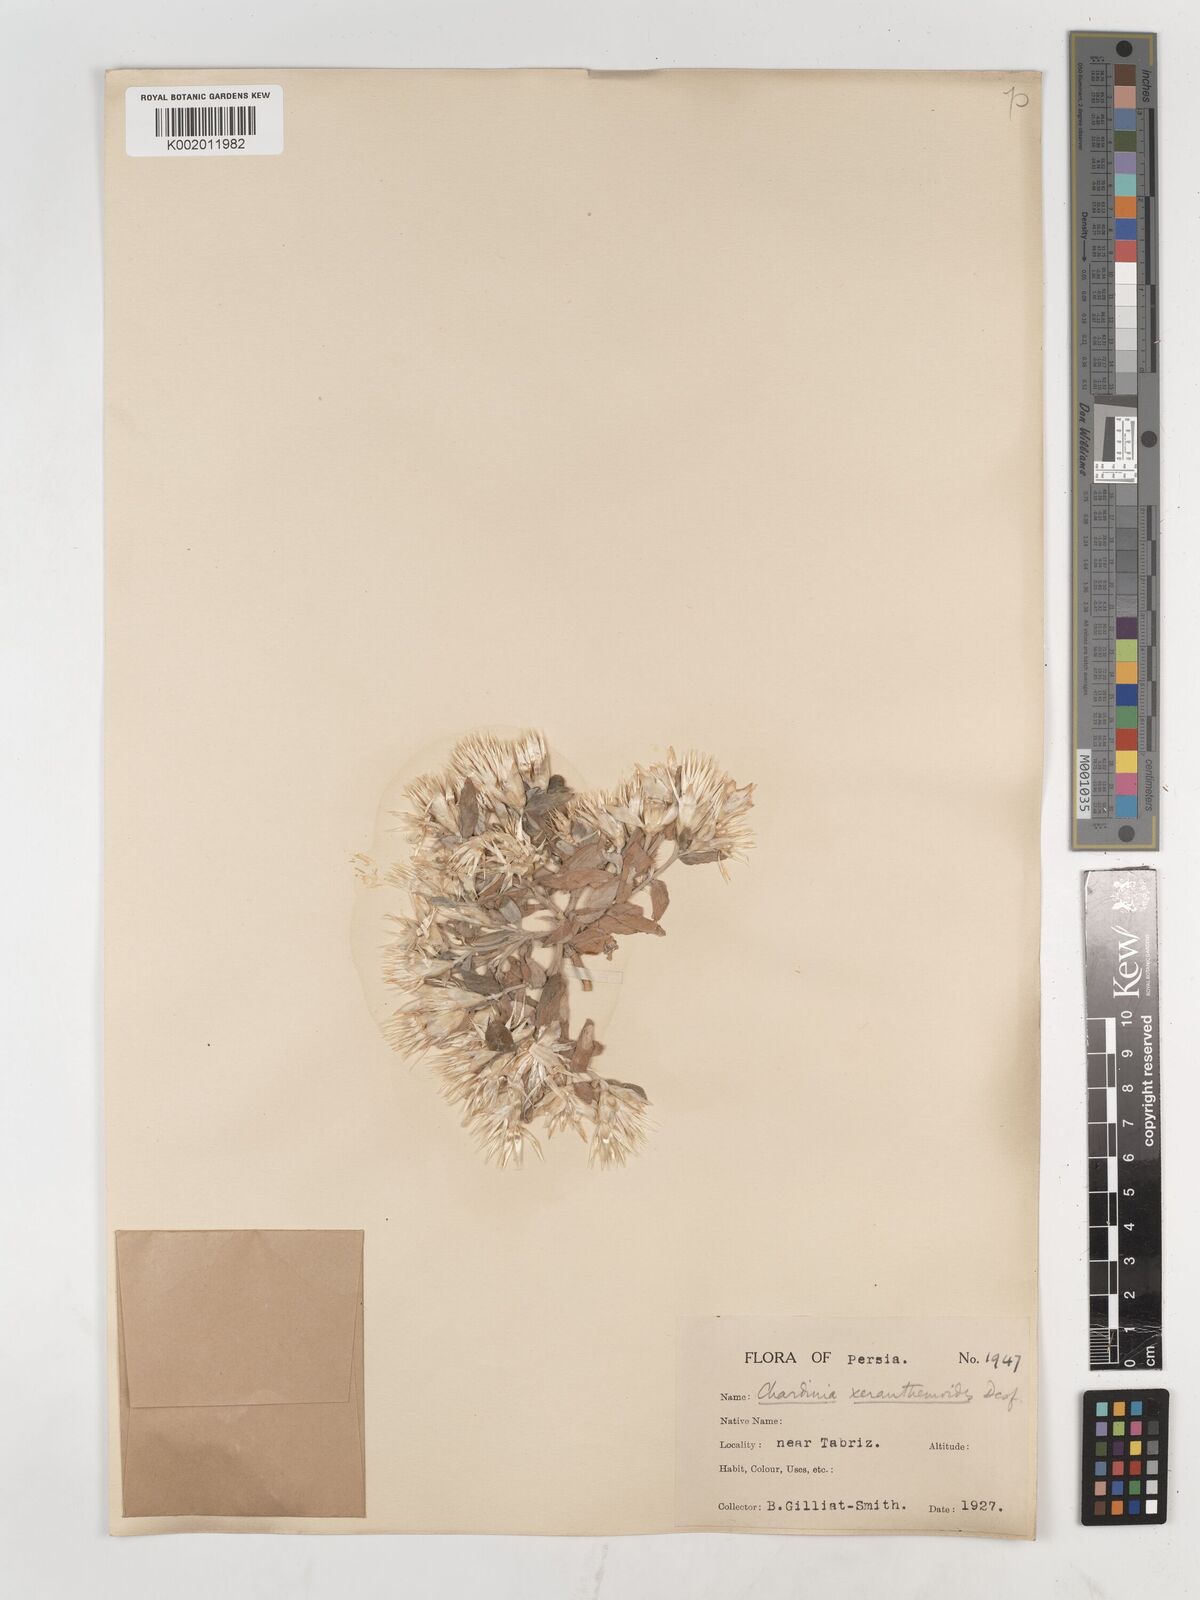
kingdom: Plantae
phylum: Tracheophyta
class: Magnoliopsida
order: Asterales
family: Asteraceae
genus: Chardinia
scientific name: Chardinia orientalis
